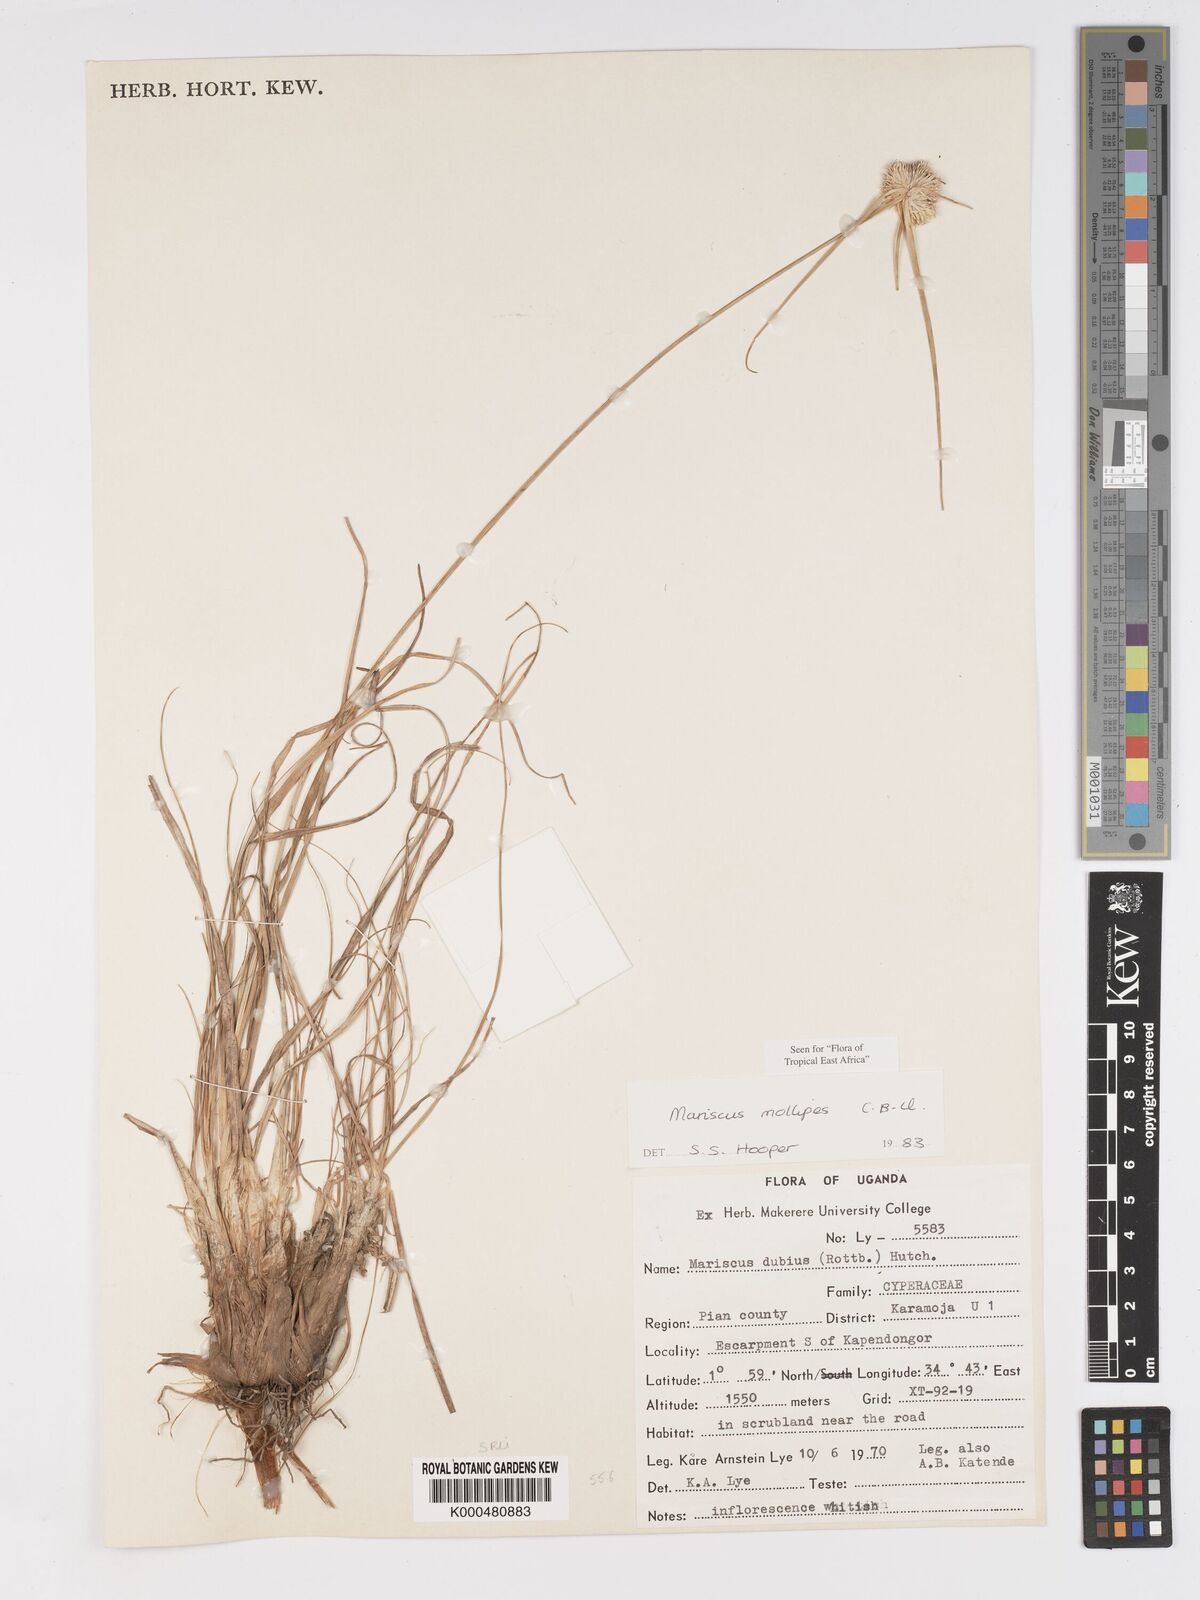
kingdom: Plantae
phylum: Tracheophyta
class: Liliopsida
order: Poales
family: Cyperaceae
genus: Cyperus
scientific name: Cyperus mollipes
